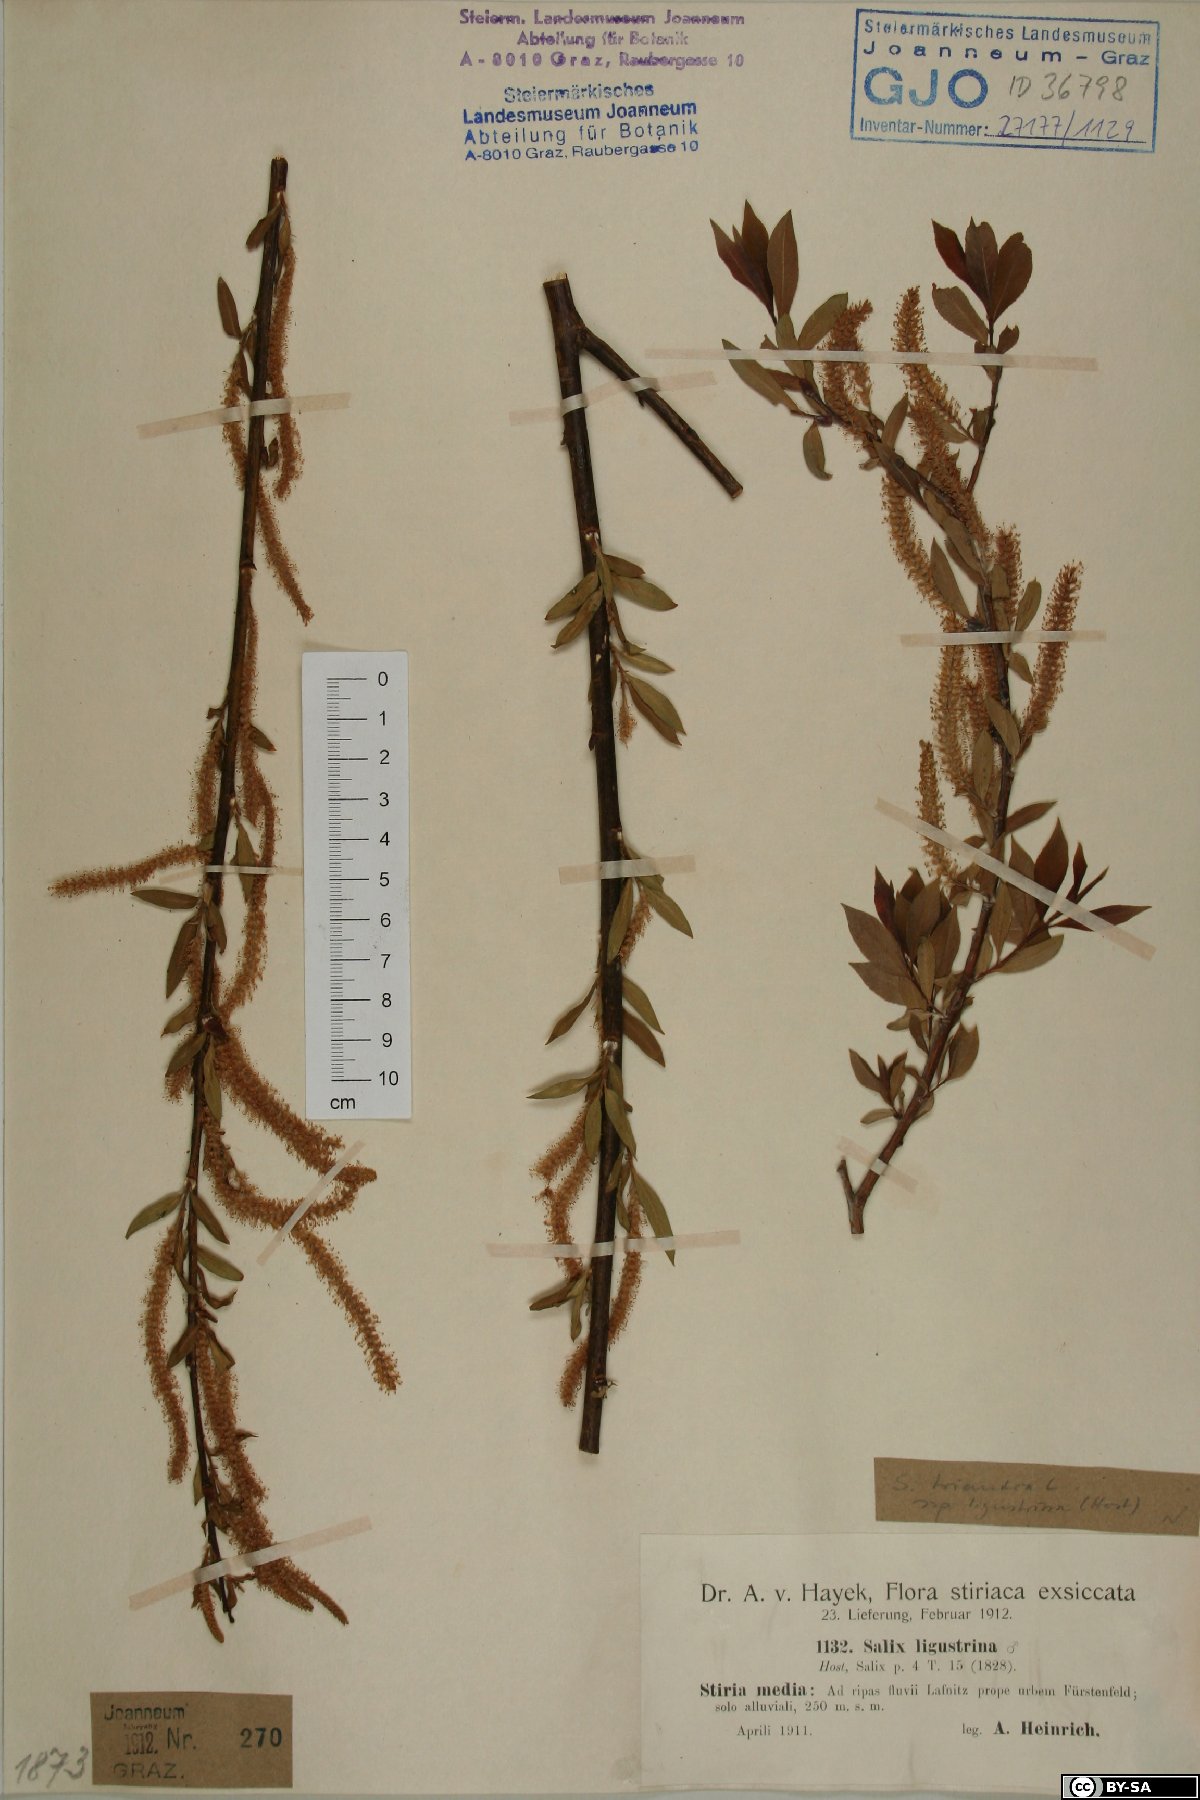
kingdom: Plantae
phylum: Tracheophyta
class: Magnoliopsida
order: Malpighiales
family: Salicaceae
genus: Salix
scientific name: Salix triandra
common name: Almond willow
